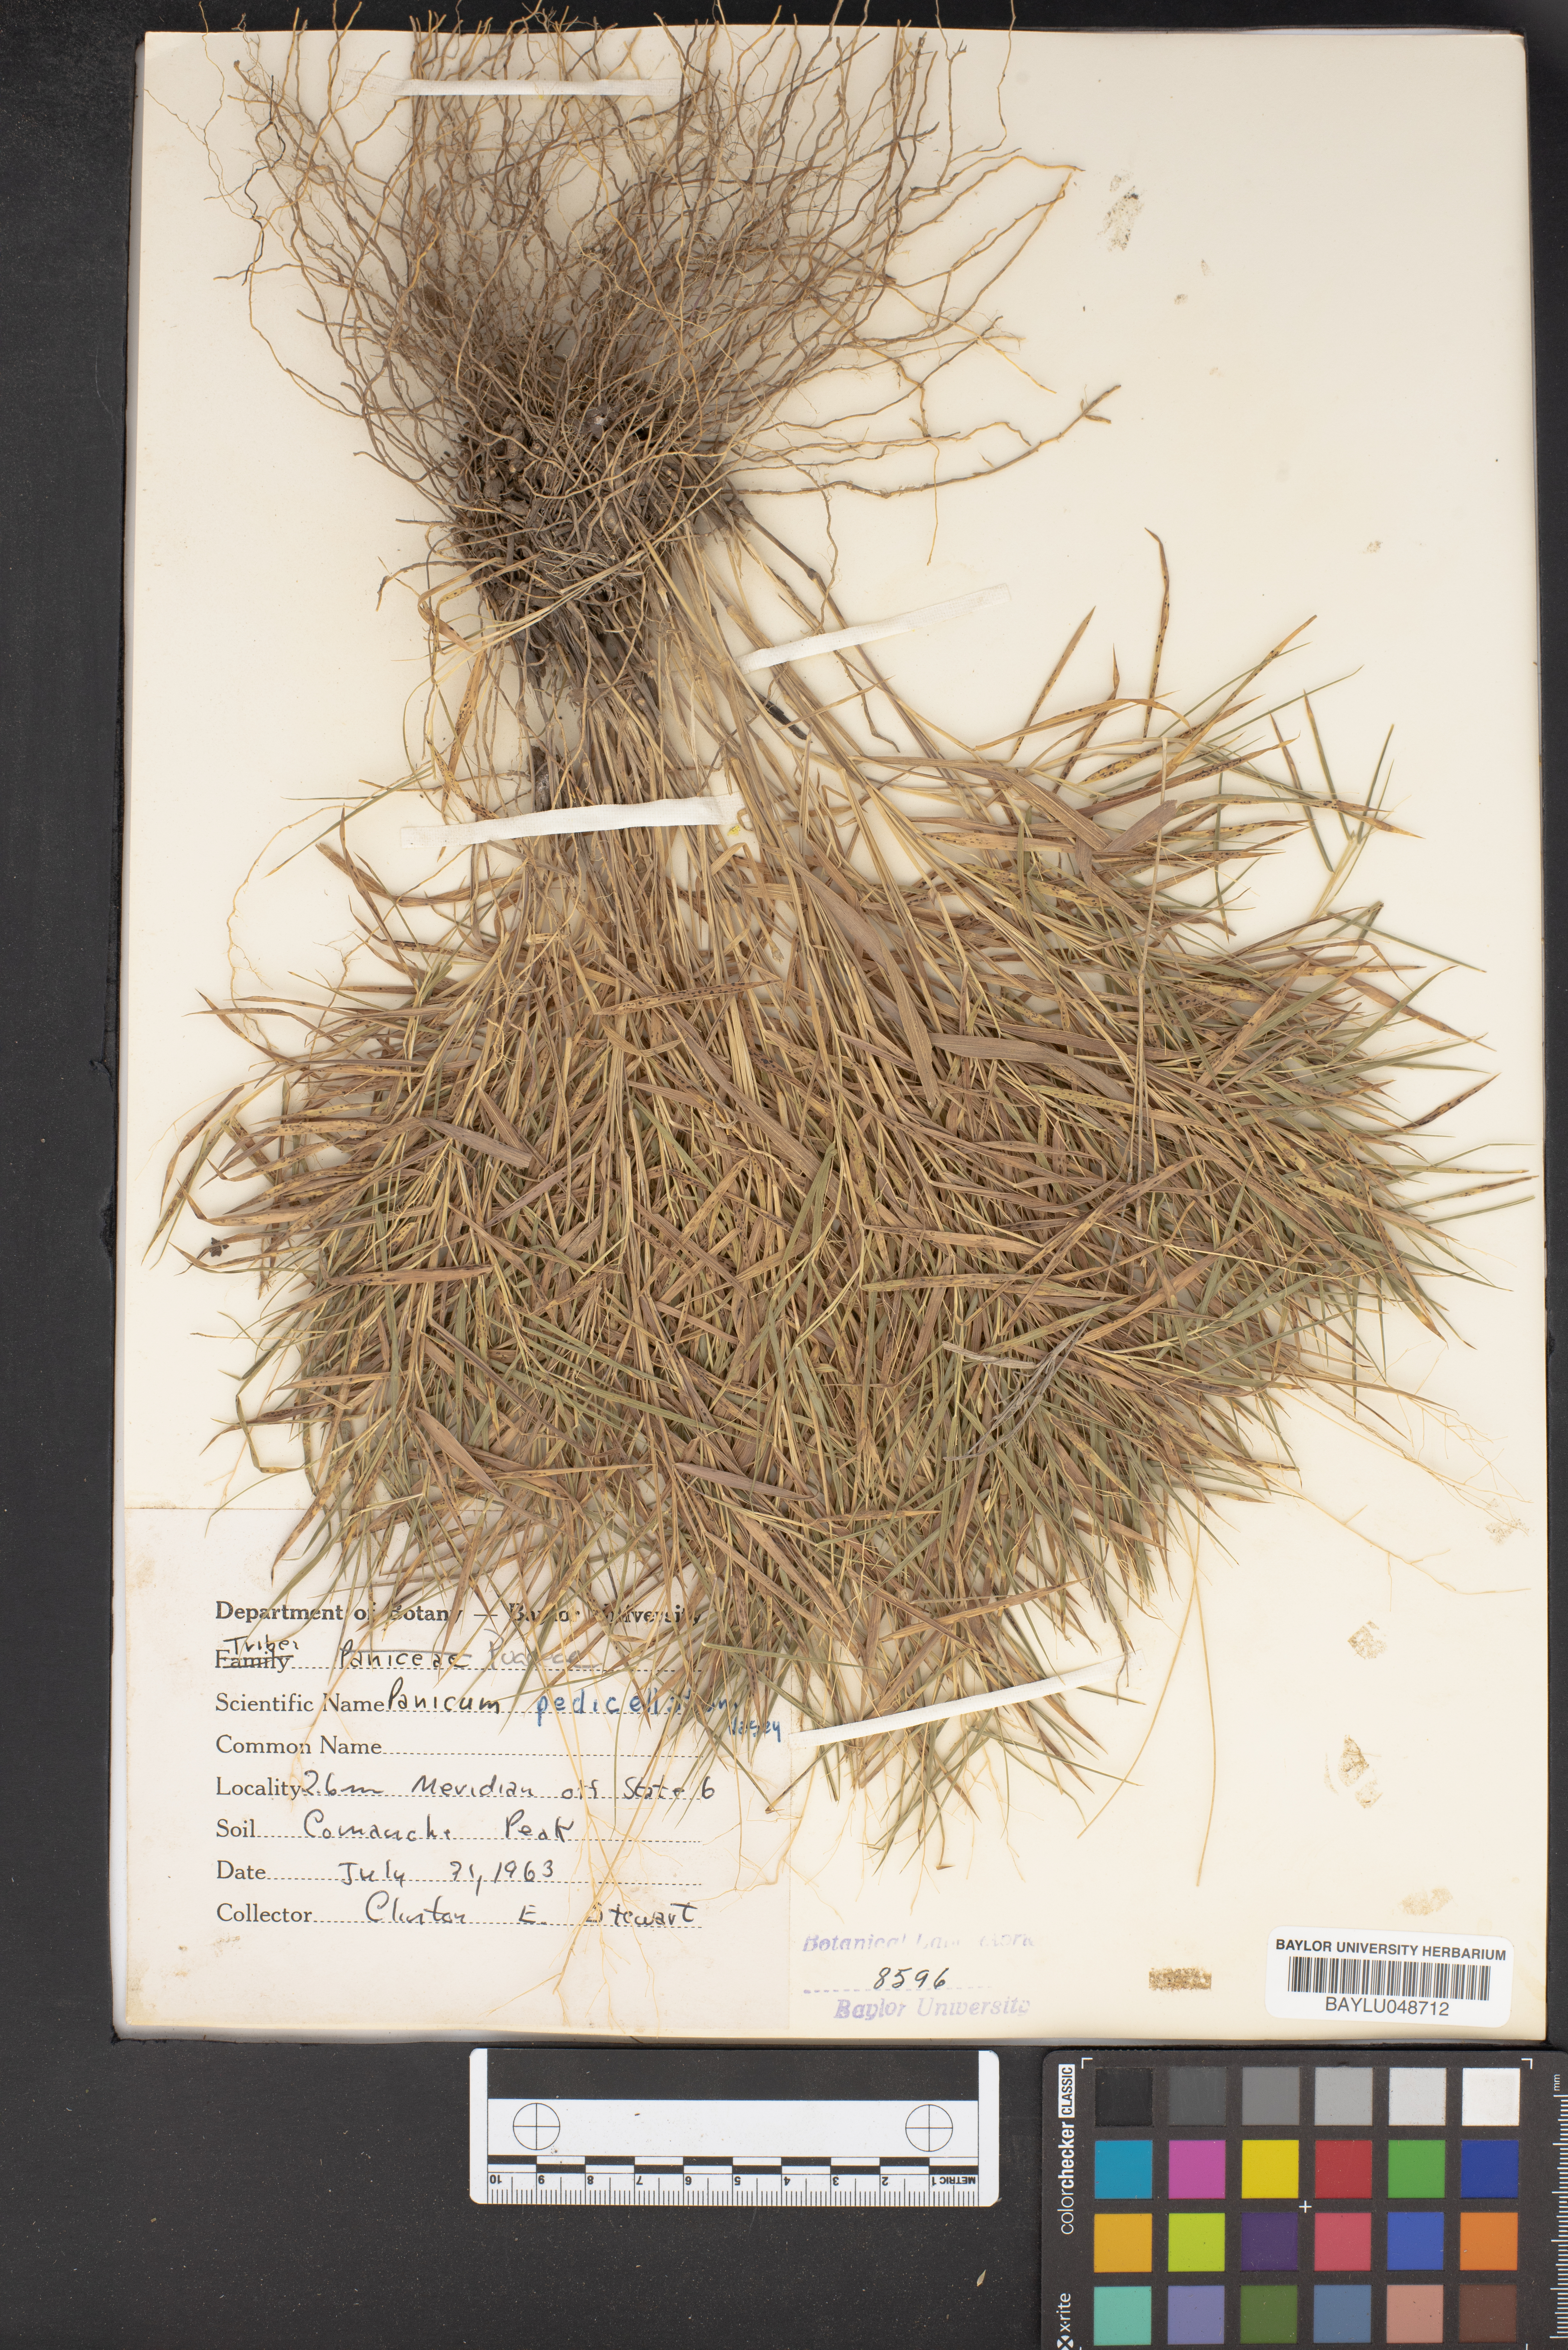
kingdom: Plantae
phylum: Tracheophyta
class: Liliopsida
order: Poales
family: Poaceae
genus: Dichanthelium
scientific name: Dichanthelium transiens
